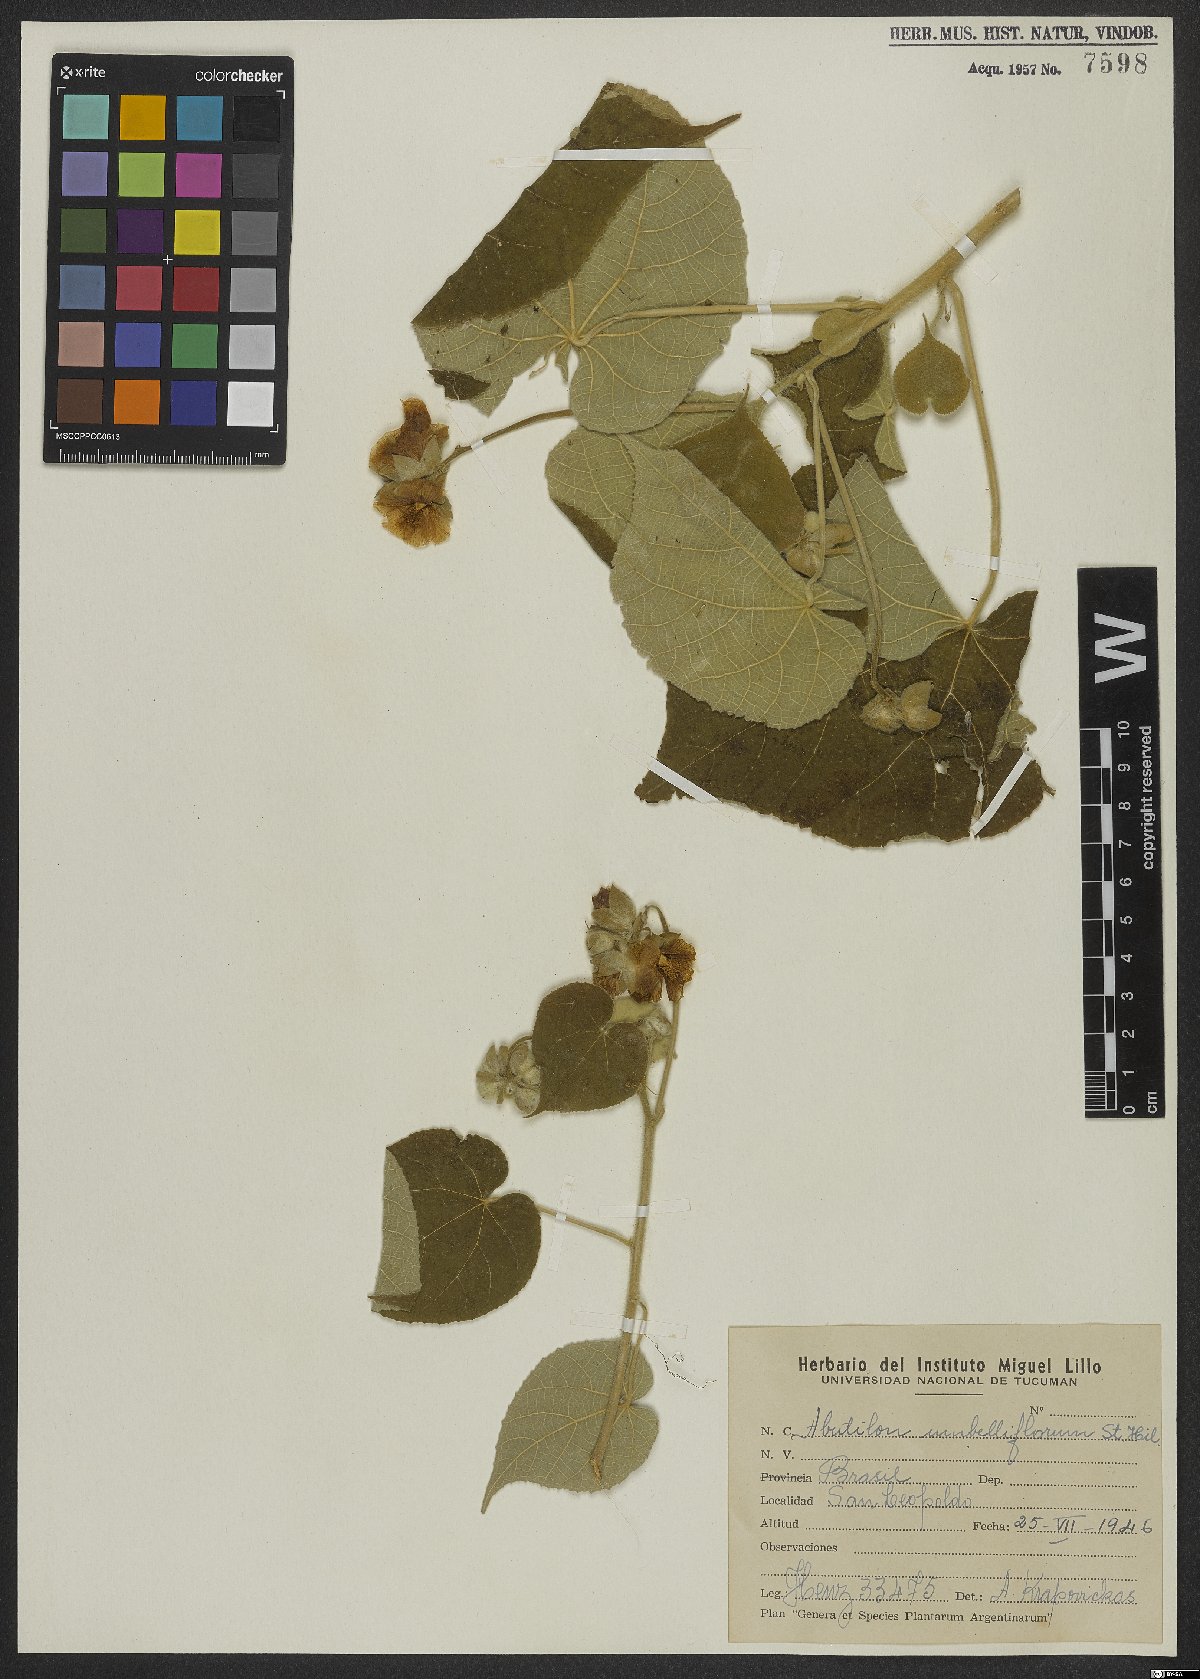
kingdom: Plantae
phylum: Tracheophyta
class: Magnoliopsida
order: Malvales
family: Malvaceae
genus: Abutilon
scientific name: Abutilon umbelliflorum
